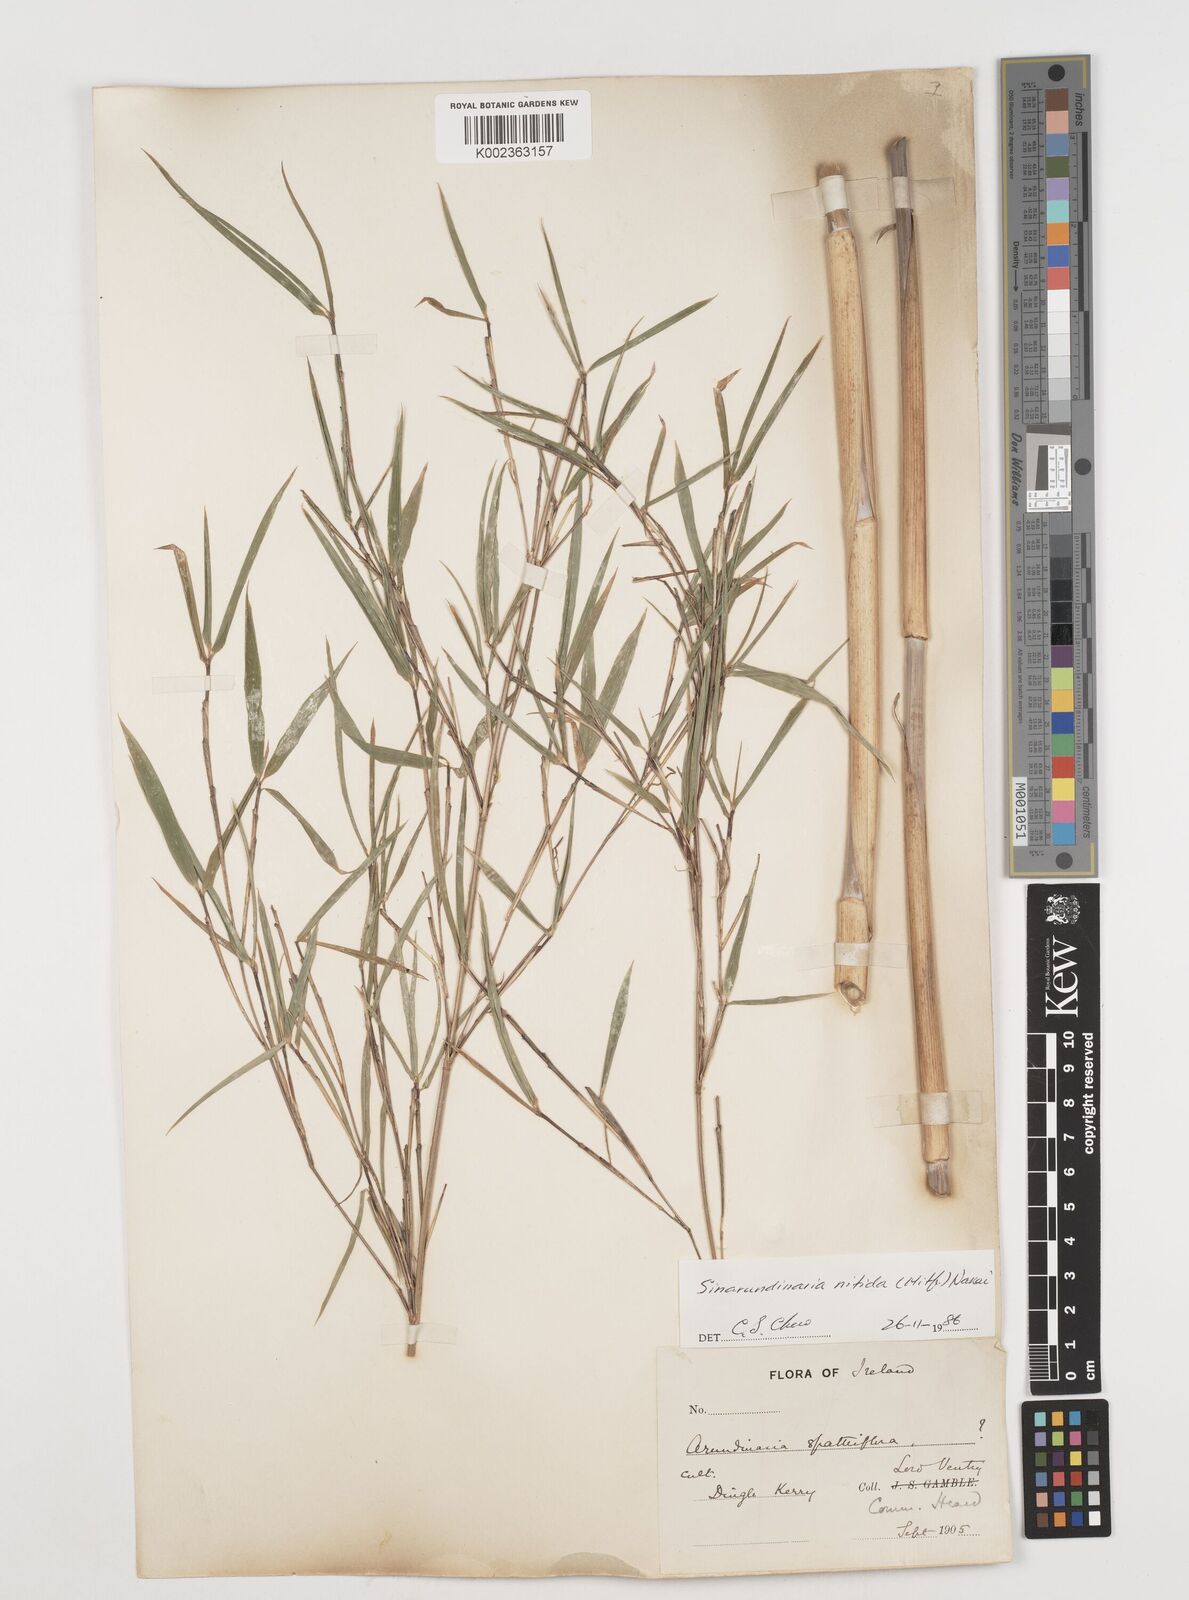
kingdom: Plantae
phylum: Tracheophyta
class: Liliopsida
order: Poales
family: Poaceae
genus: Fargesia
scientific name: Fargesia nitida ex
